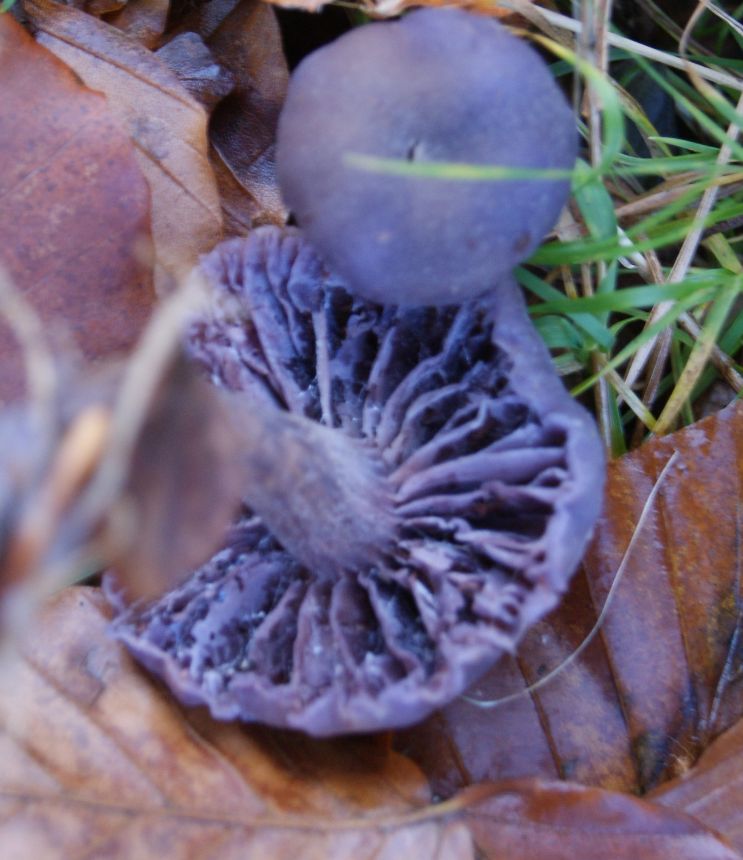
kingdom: Fungi
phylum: Basidiomycota
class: Agaricomycetes
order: Agaricales
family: Hydnangiaceae
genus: Laccaria
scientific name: Laccaria amethystina
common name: violet ametysthat
